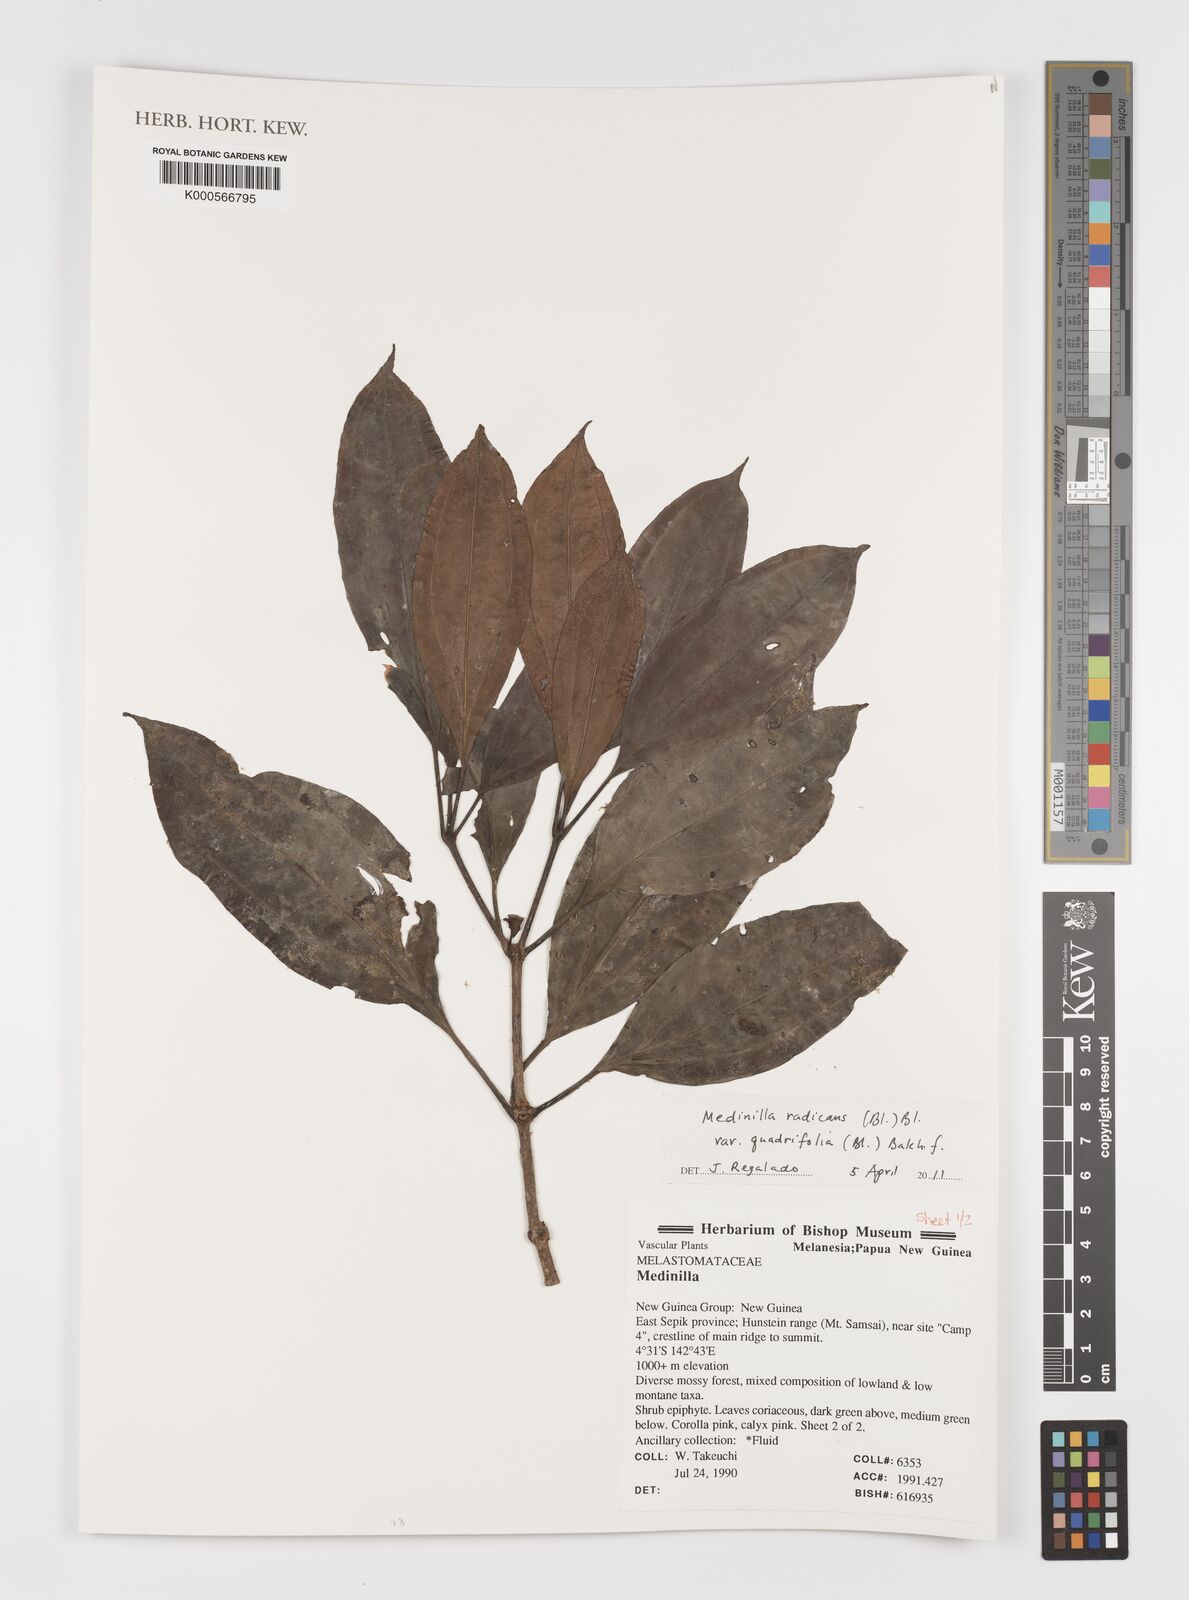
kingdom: Plantae
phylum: Tracheophyta
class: Magnoliopsida
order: Myrtales
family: Melastomataceae
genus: Medinilla
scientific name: Medinilla radicans
